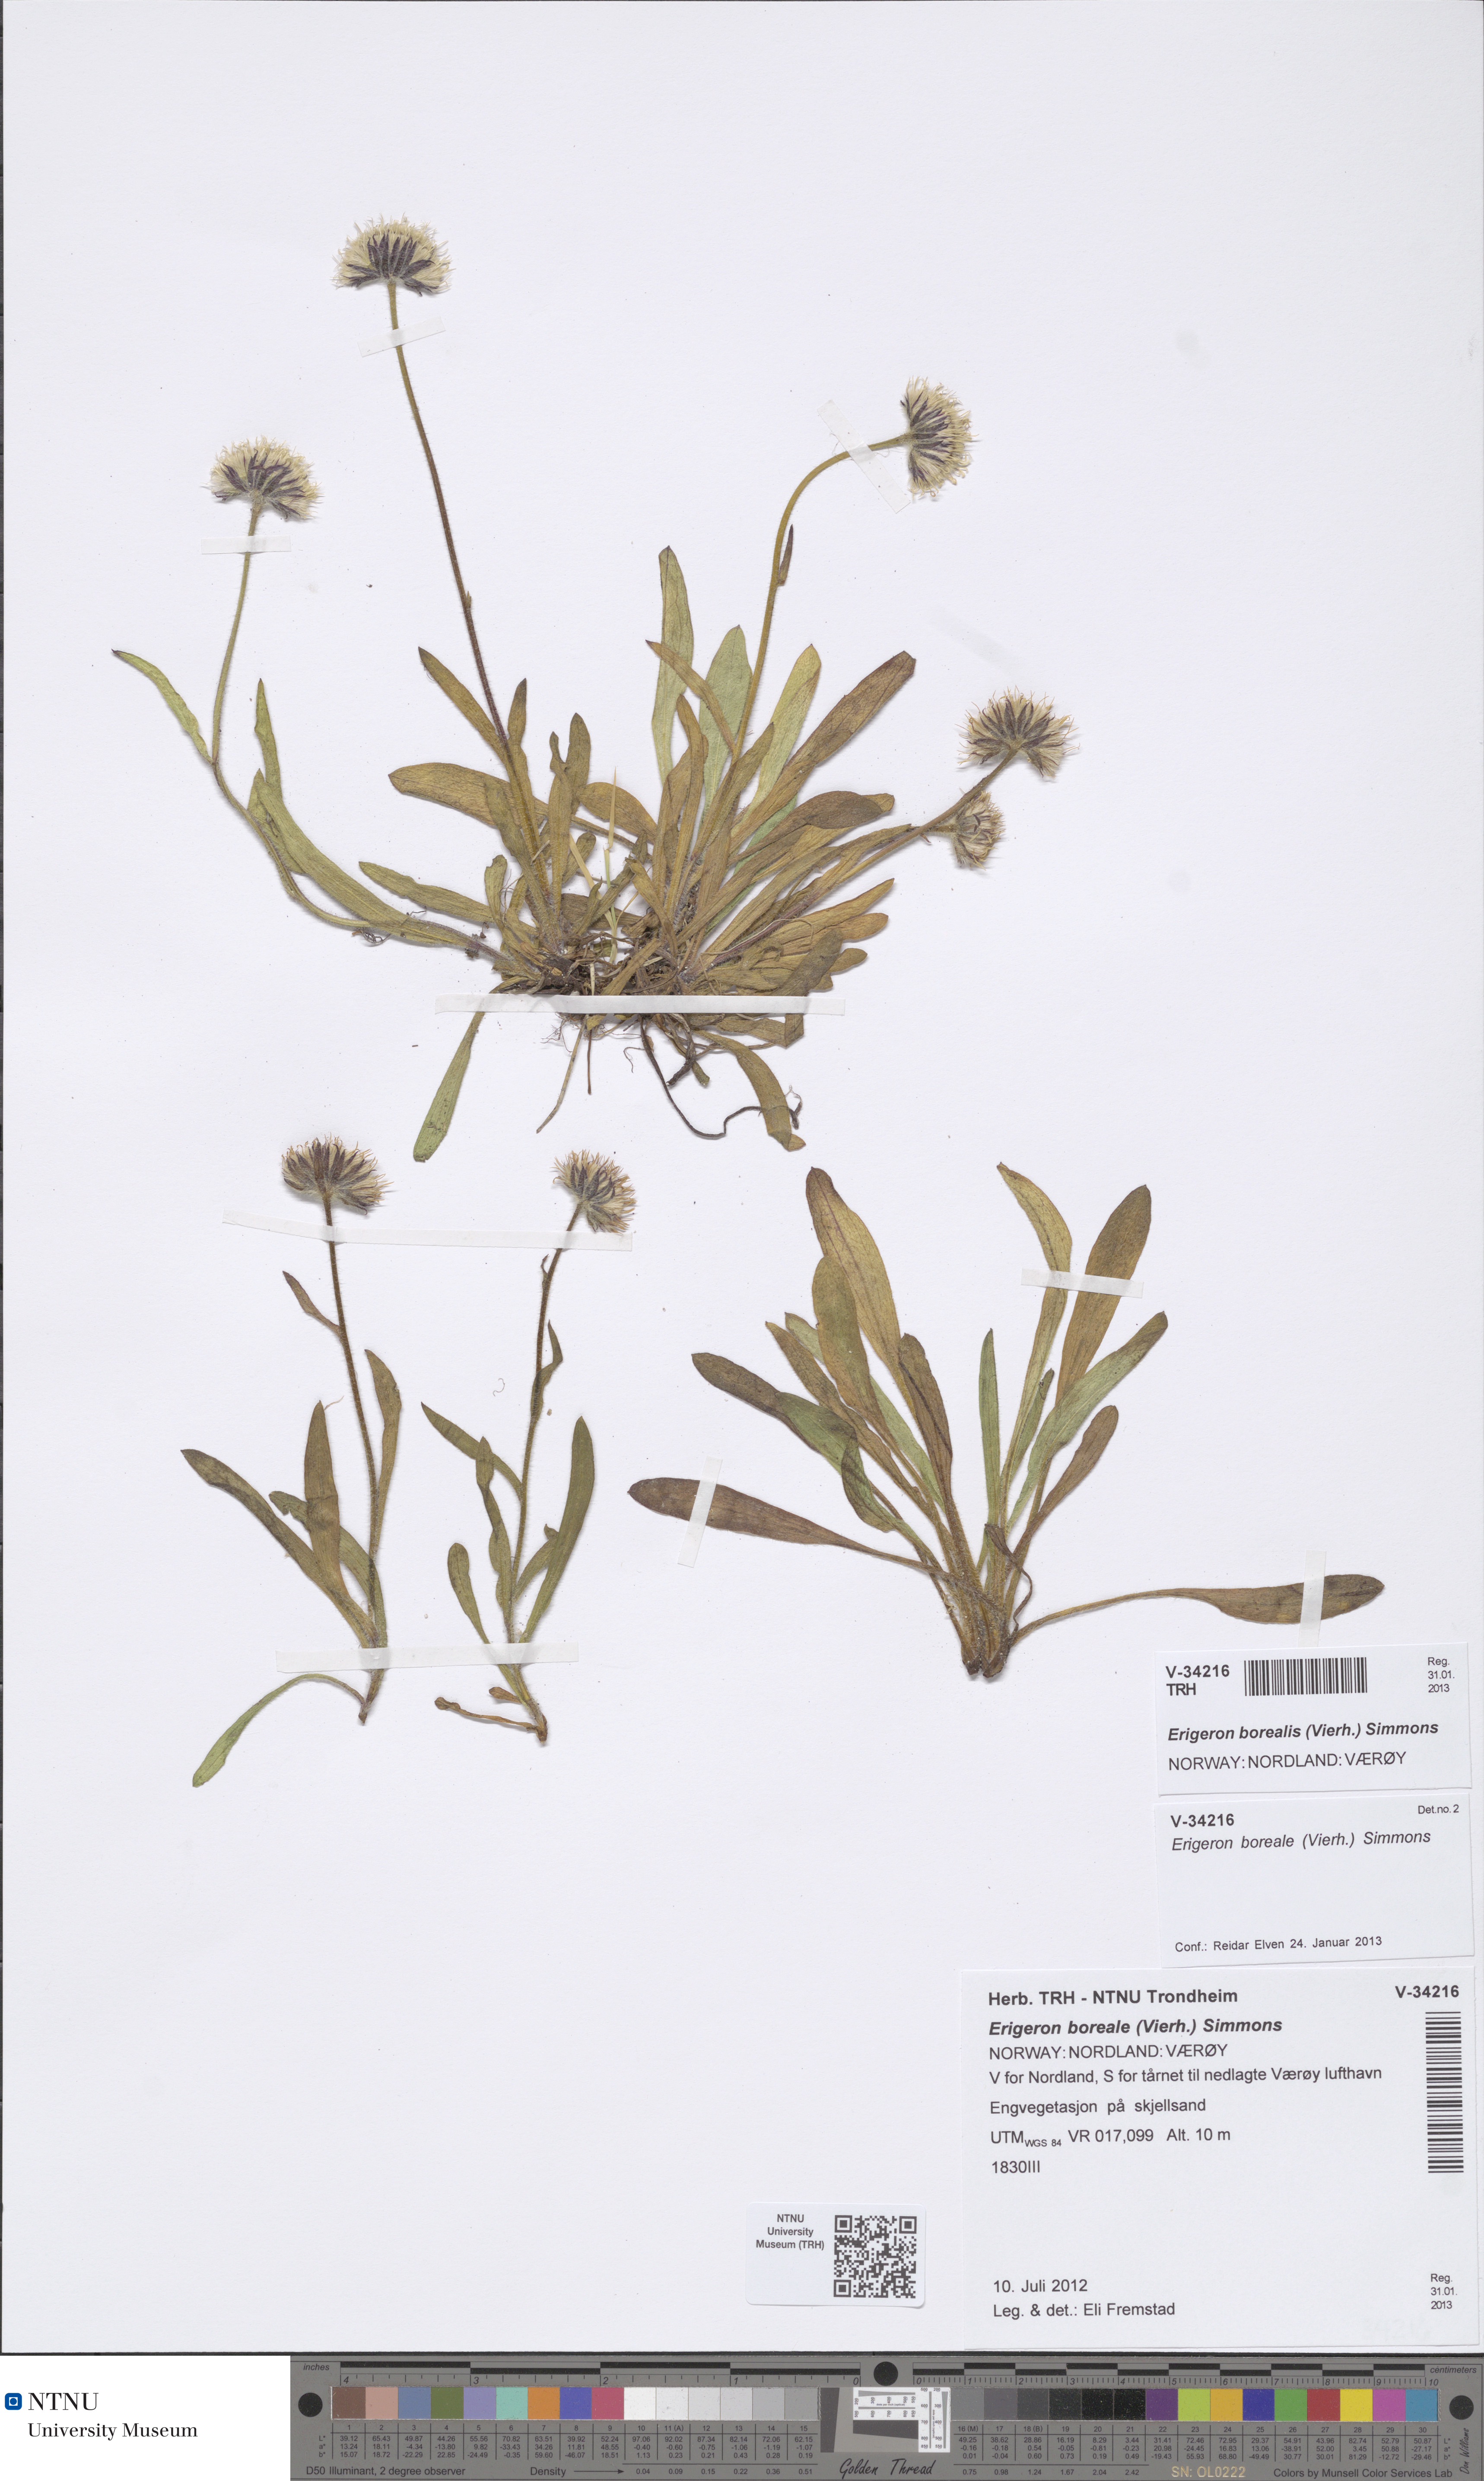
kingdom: Plantae
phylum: Tracheophyta
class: Magnoliopsida
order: Asterales
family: Asteraceae
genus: Erigeron
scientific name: Erigeron borealis
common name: Alpine fleabane
